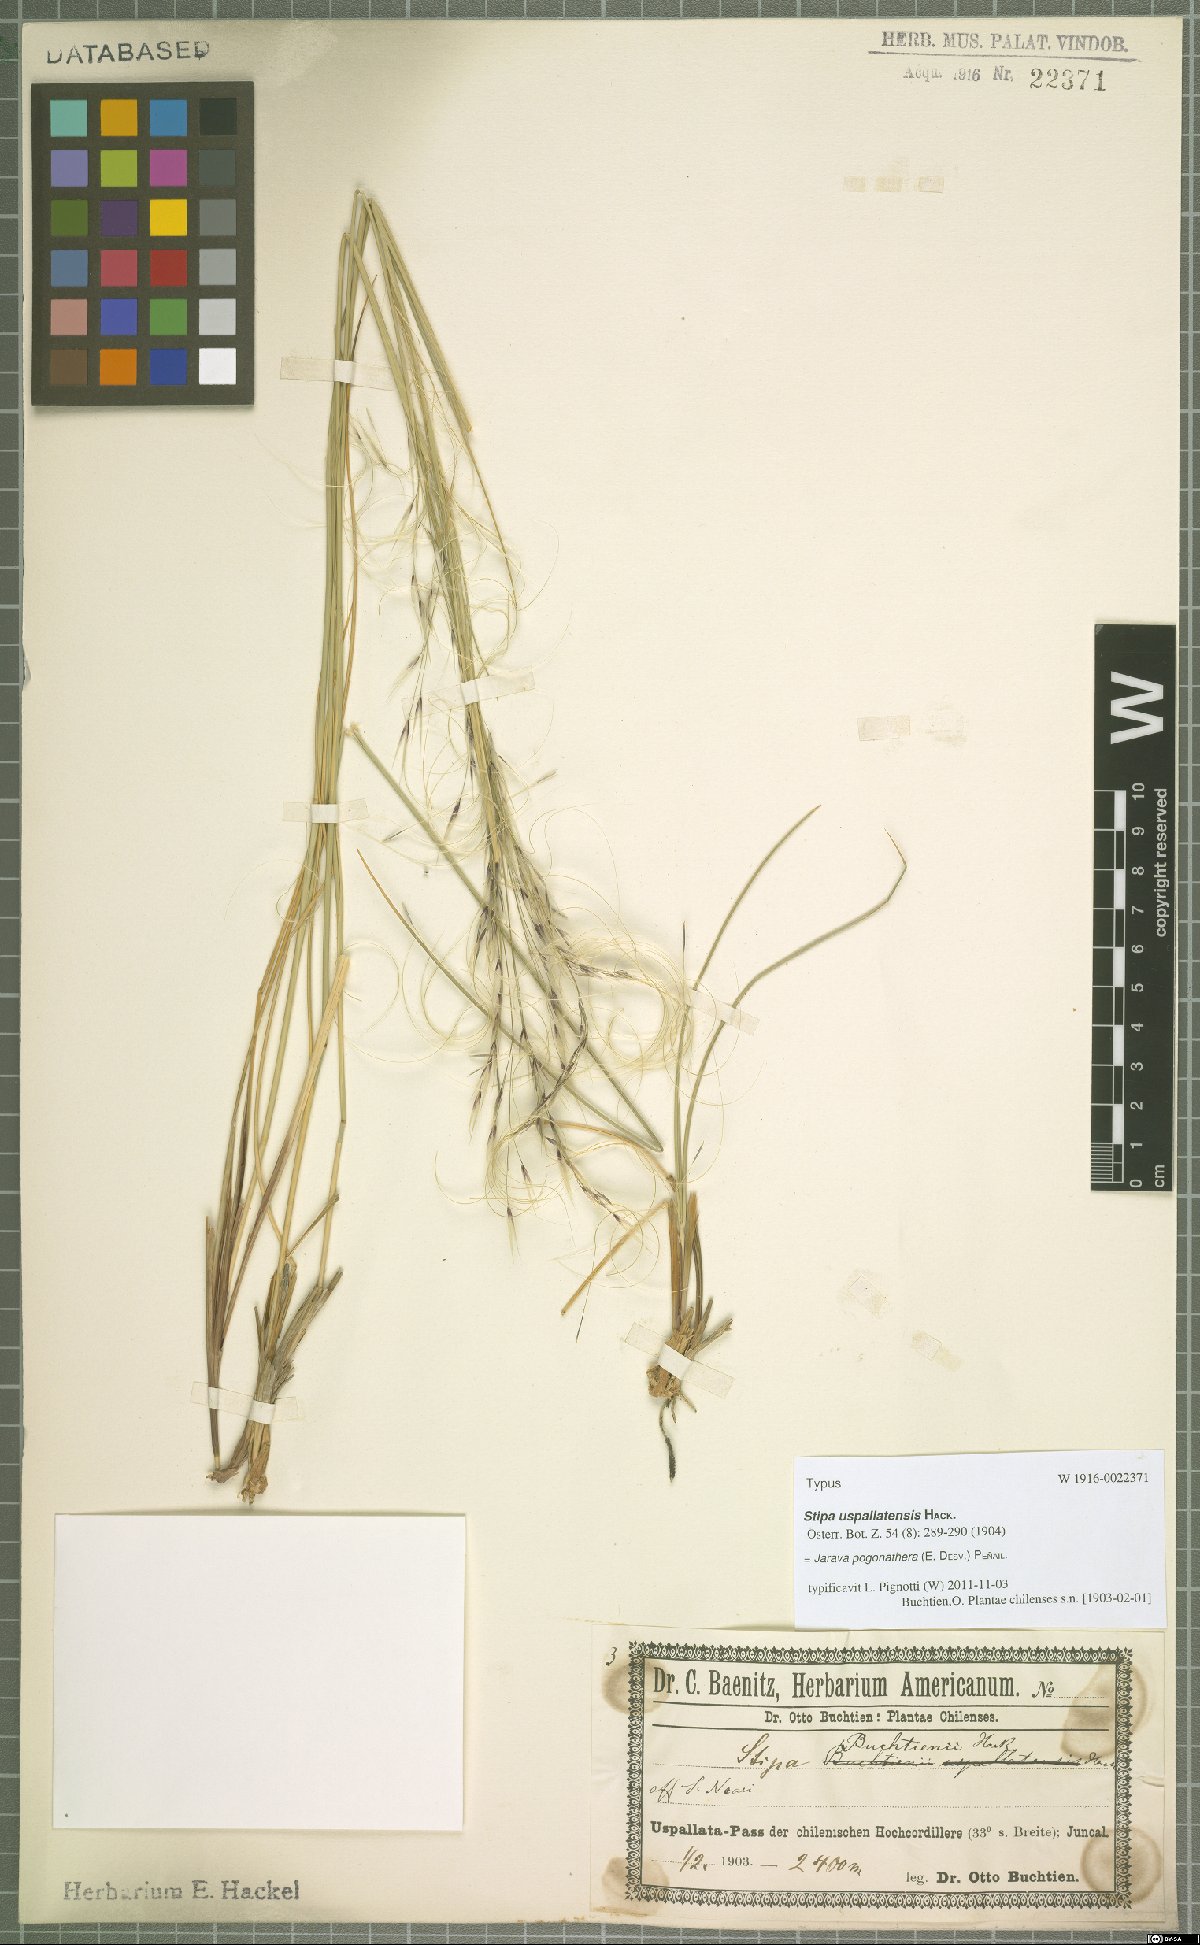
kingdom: Plantae
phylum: Tracheophyta
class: Liliopsida
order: Poales
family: Poaceae
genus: Stipa
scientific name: Stipa pogonathera
